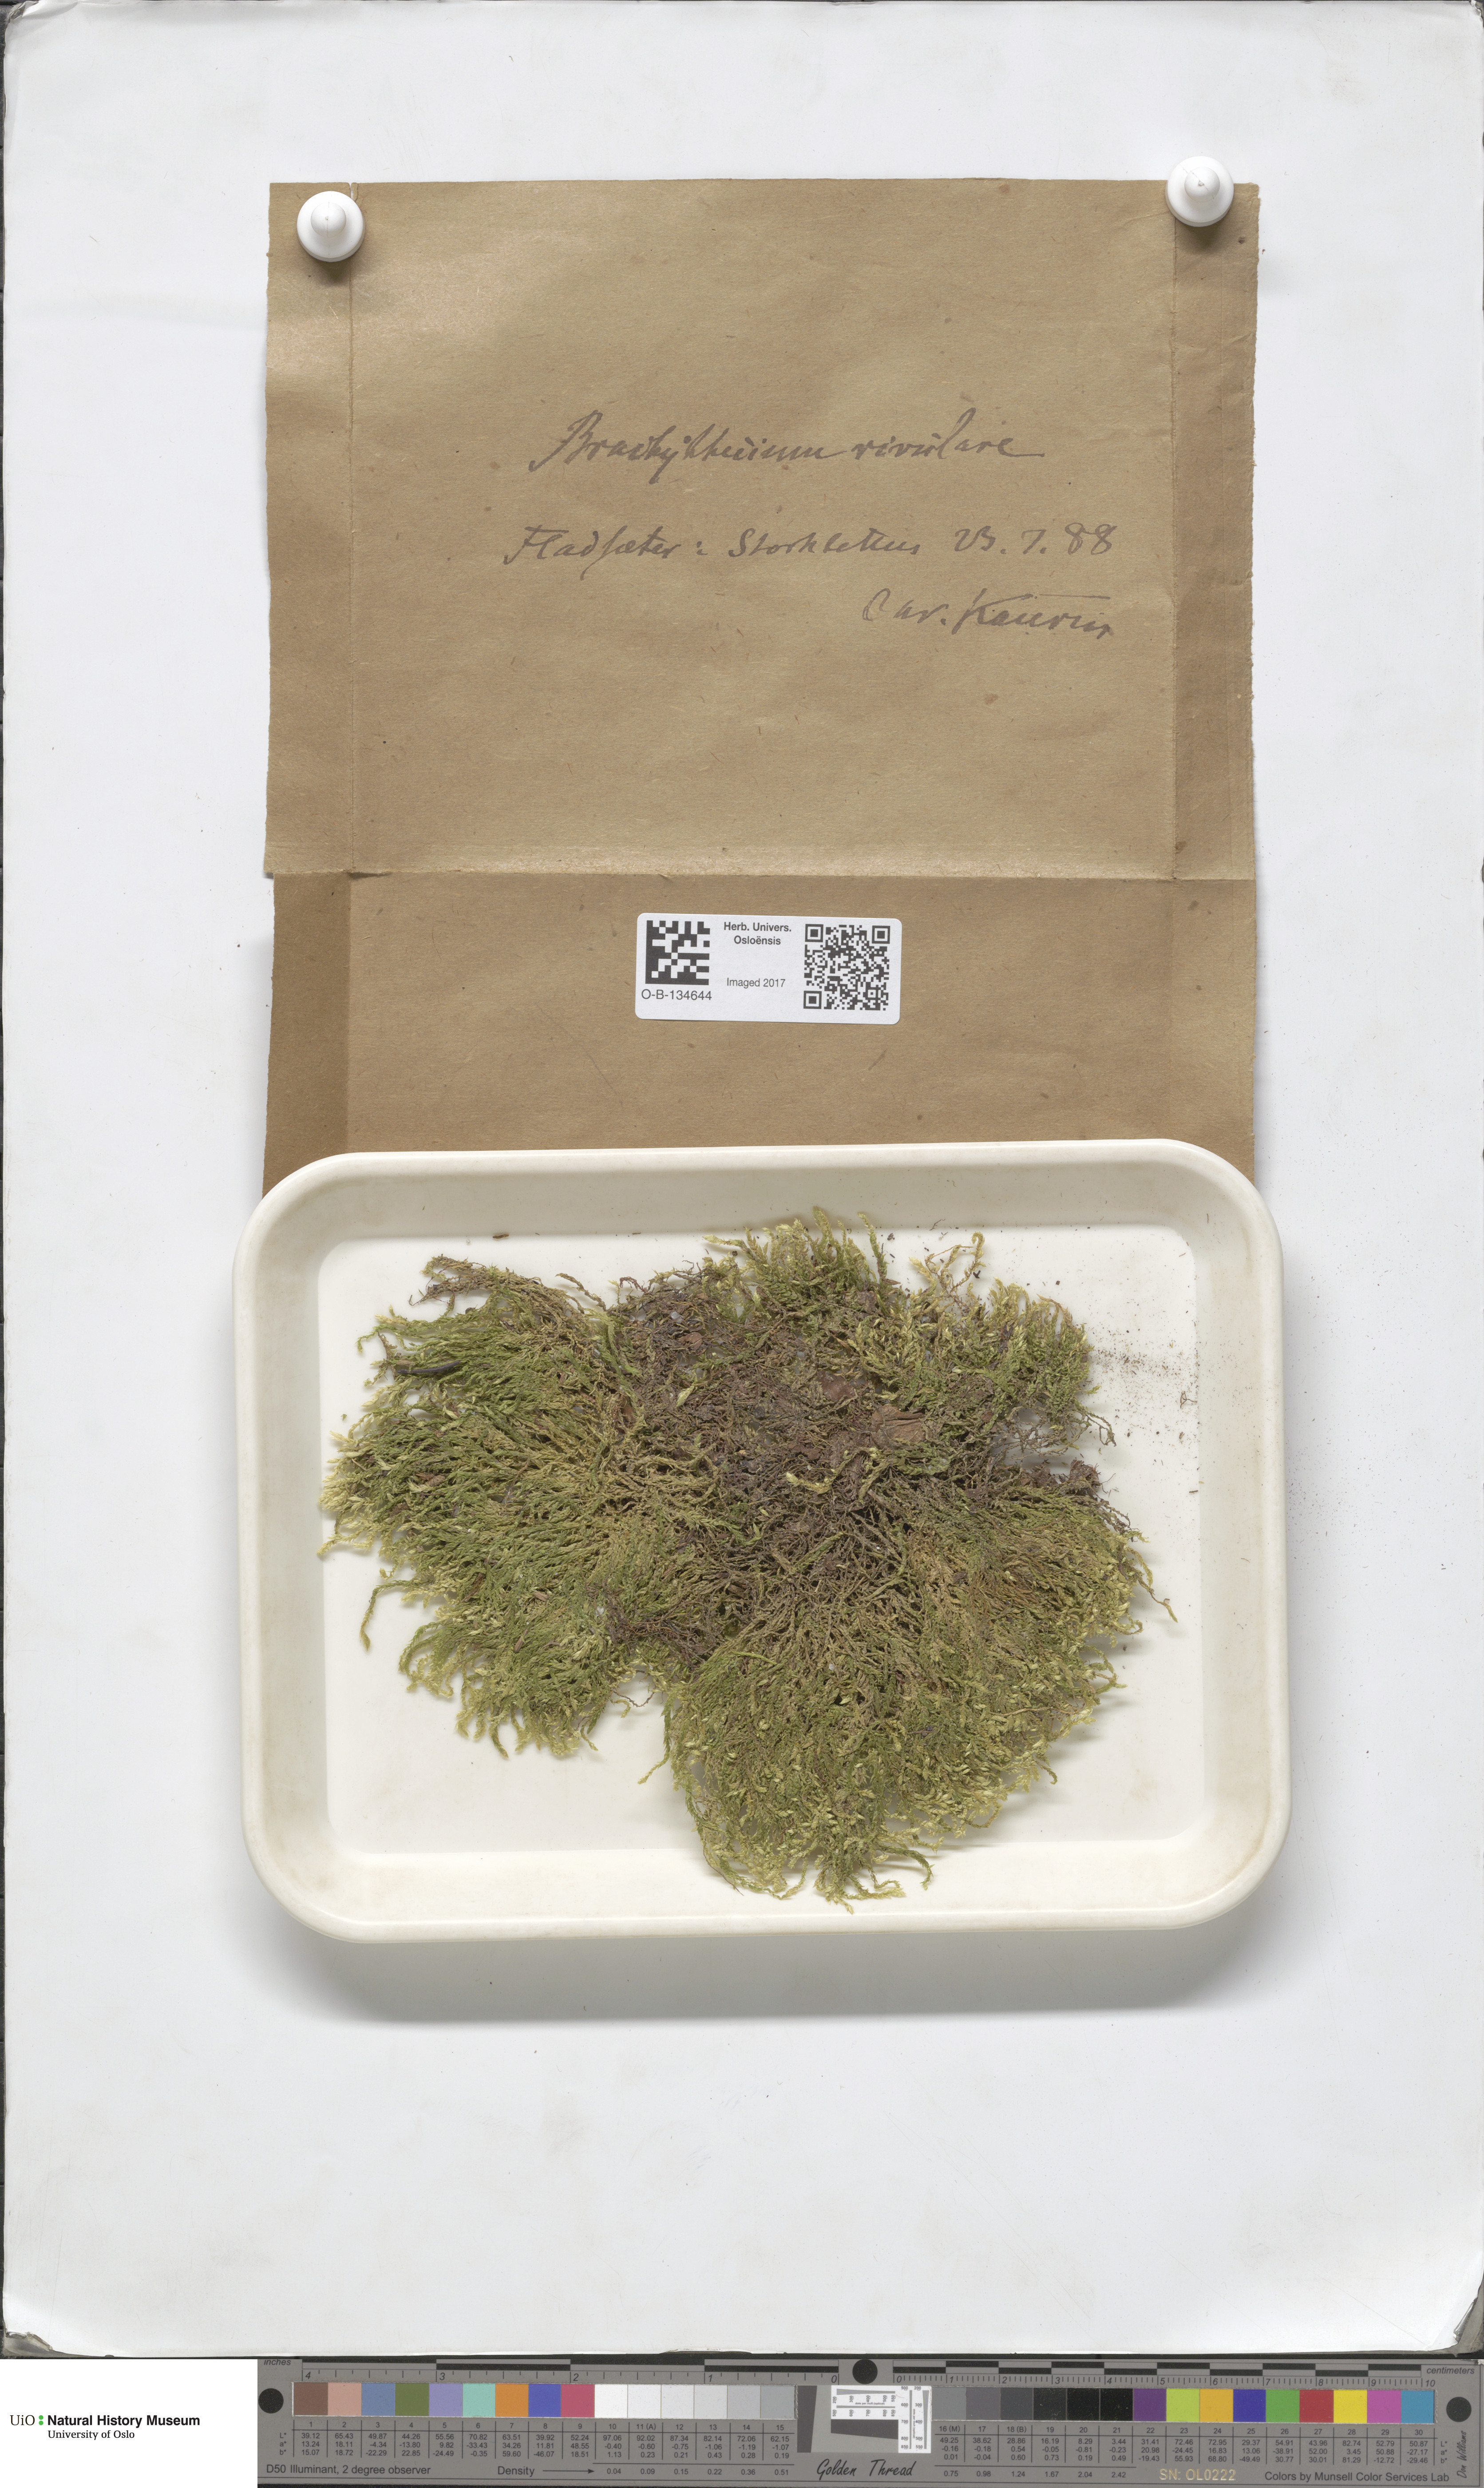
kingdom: Plantae
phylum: Bryophyta
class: Bryopsida
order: Hypnales
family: Brachytheciaceae
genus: Brachythecium
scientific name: Brachythecium rivulare
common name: River ragged moss
